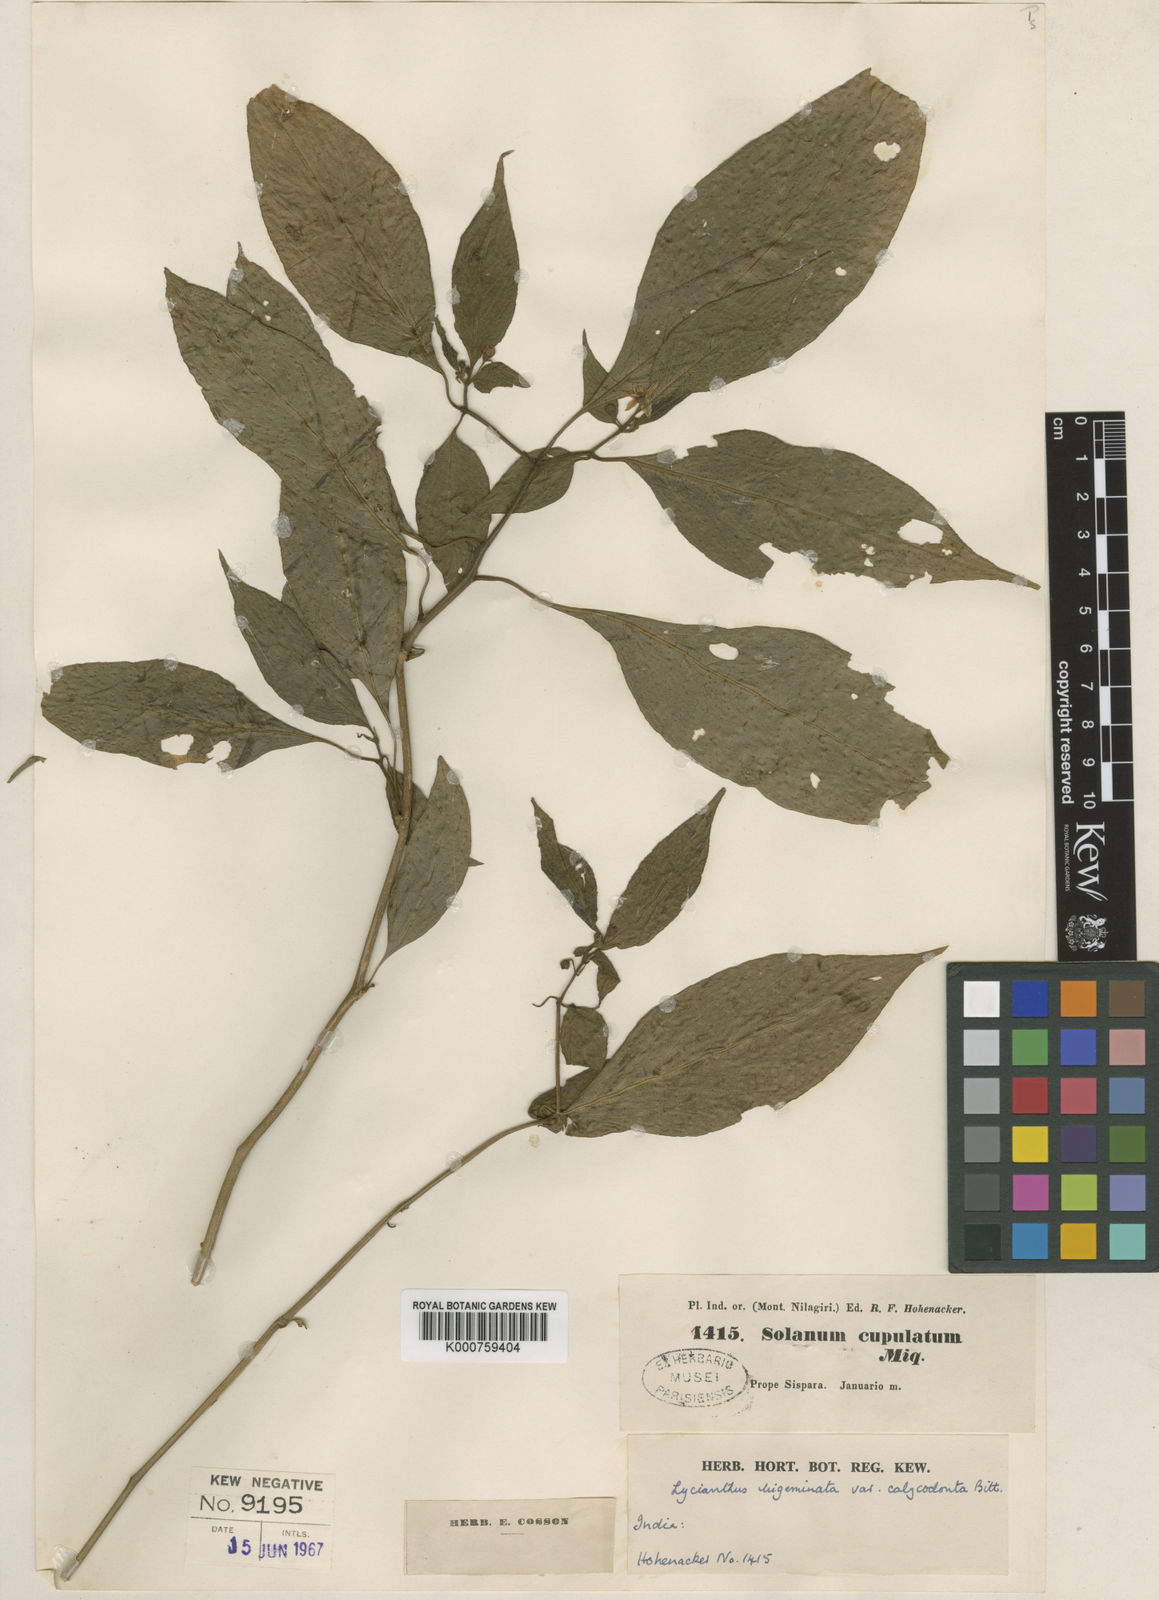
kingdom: Plantae
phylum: Tracheophyta
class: Magnoliopsida
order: Solanales
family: Solanaceae
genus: Lycianthes
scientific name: Lycianthes bigeminata
